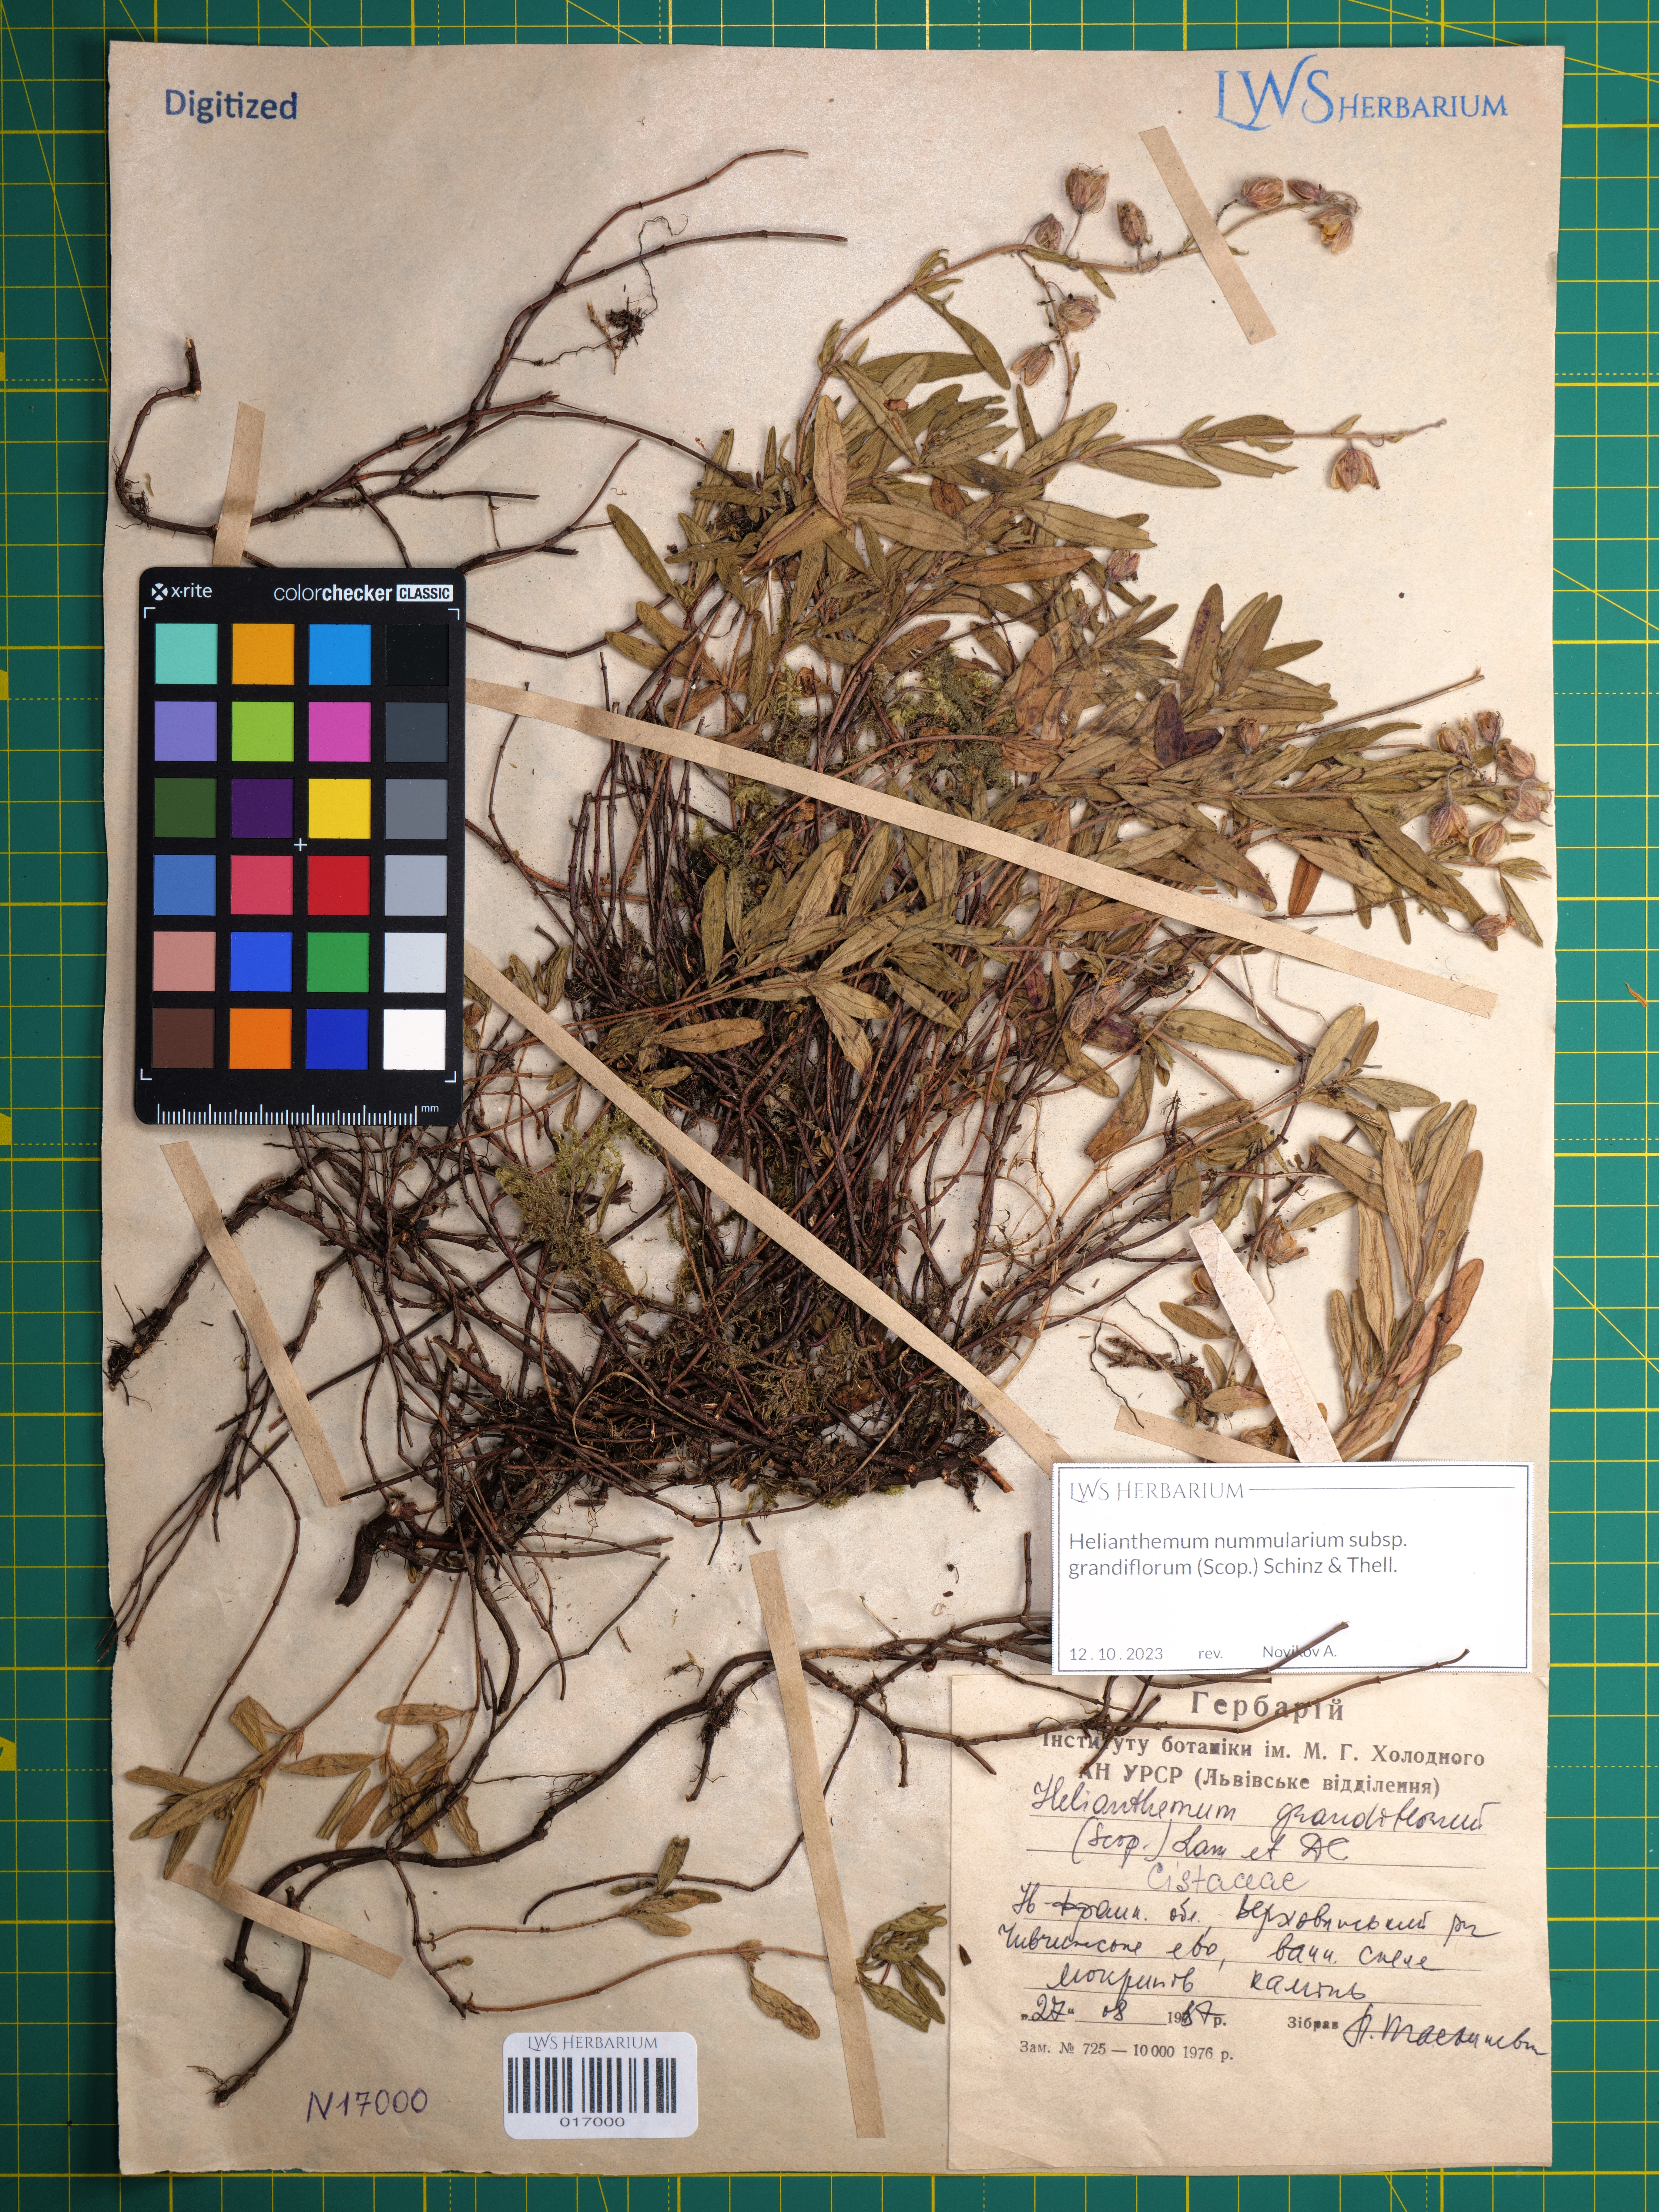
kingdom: Plantae
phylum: Tracheophyta
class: Magnoliopsida
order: Malvales
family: Cistaceae
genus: Helianthemum
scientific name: Helianthemum nummularium
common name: Common rock-rose
